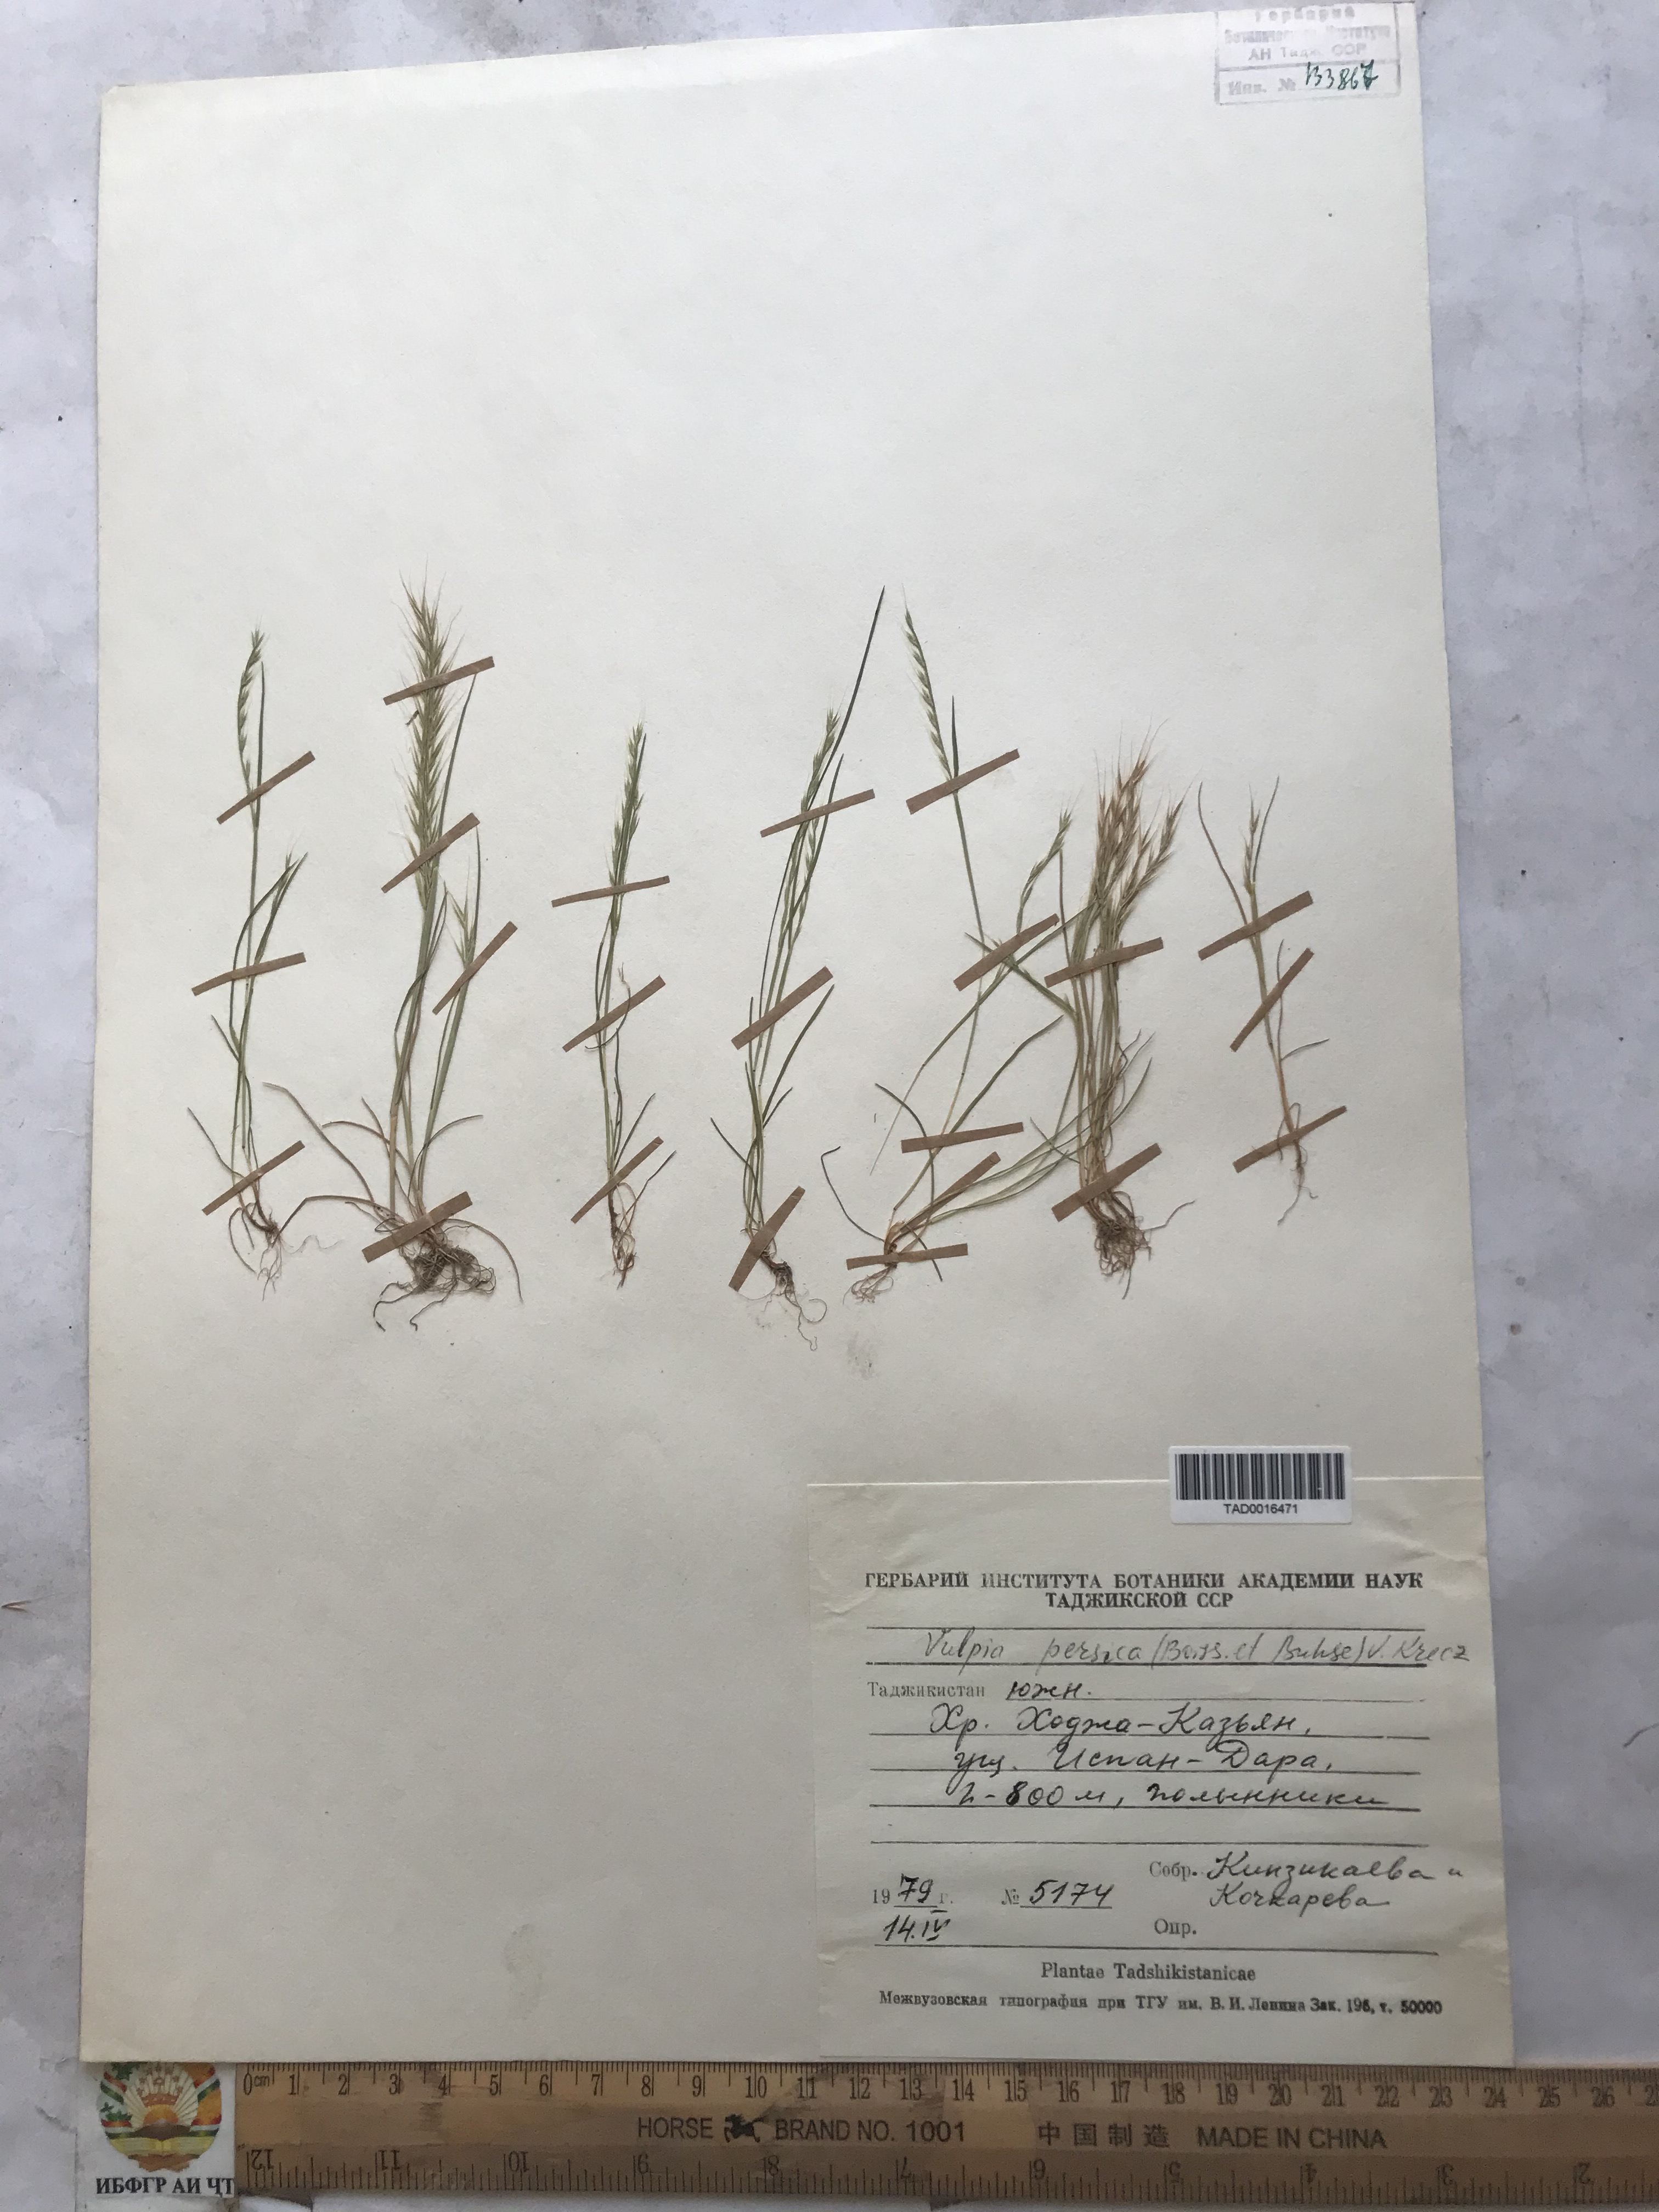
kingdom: Plantae
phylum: Tracheophyta
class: Liliopsida
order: Poales
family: Poaceae
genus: Festuca
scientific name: Festuca Vulpia persica
